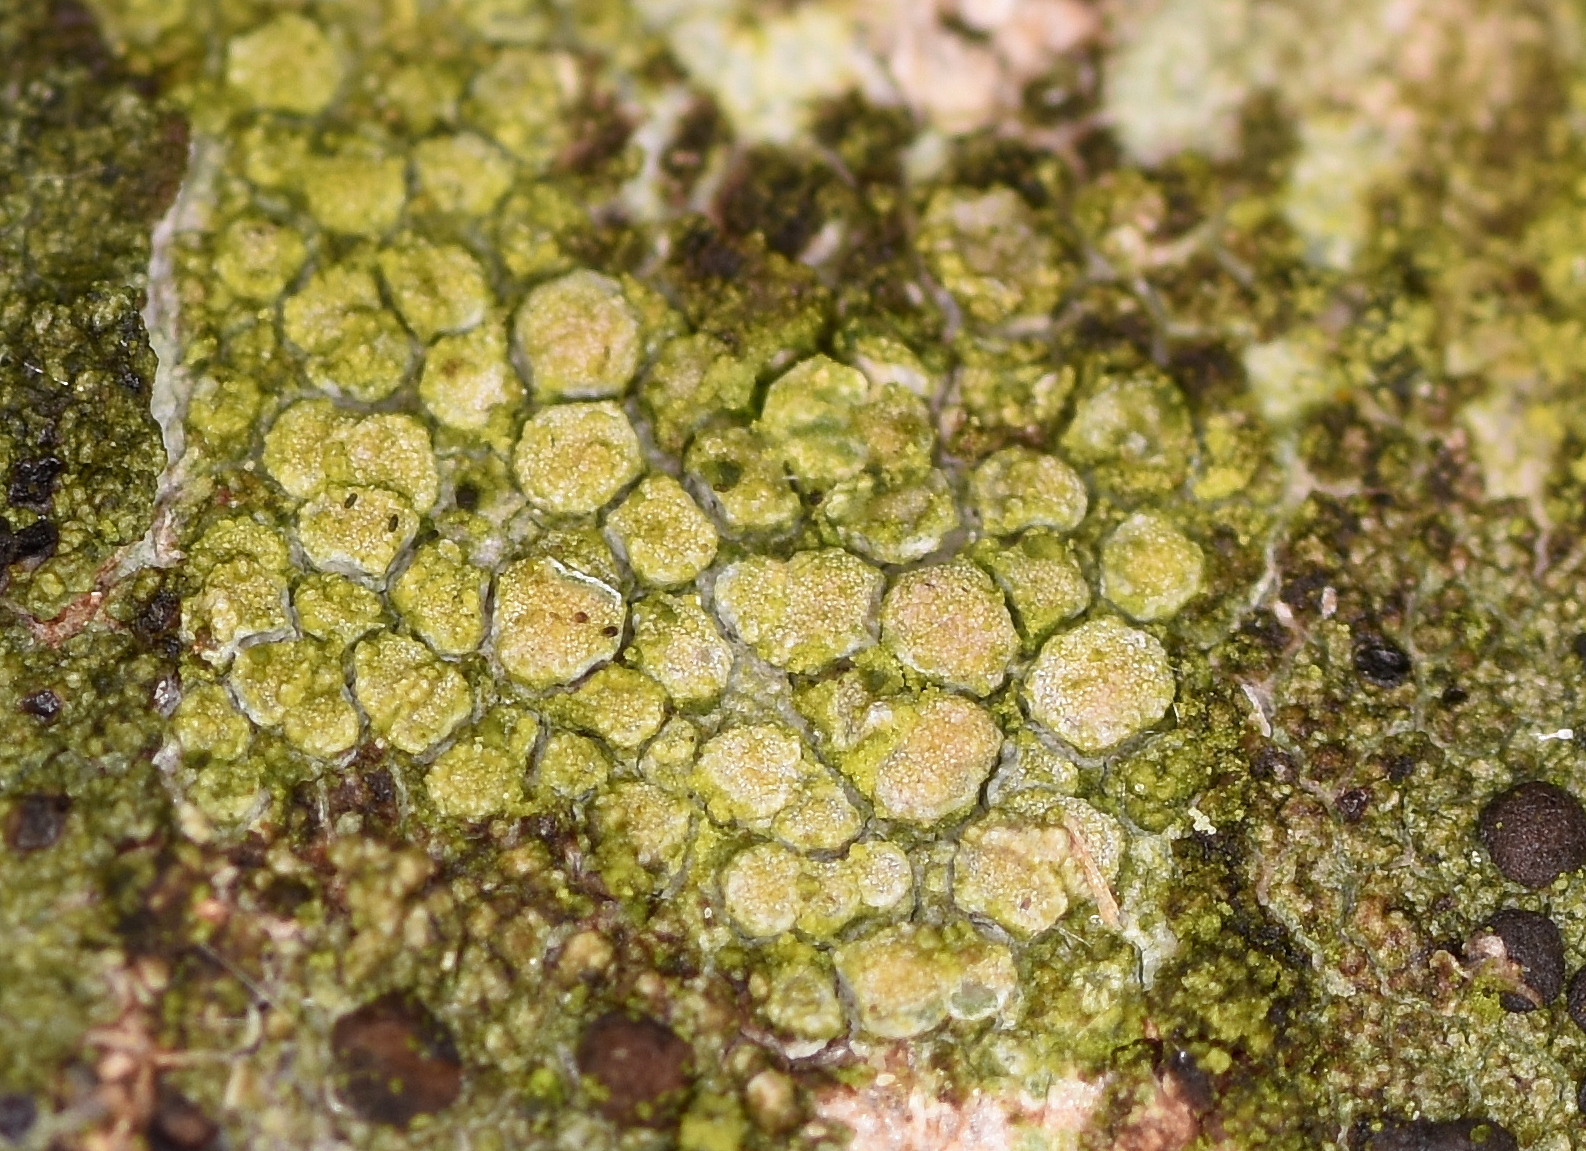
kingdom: Fungi
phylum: Ascomycota
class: Lecanoromycetes
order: Lecanorales
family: Lecanoraceae
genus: Glaucomaria
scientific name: Glaucomaria carpinea
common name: hviddugget kantskivelav
